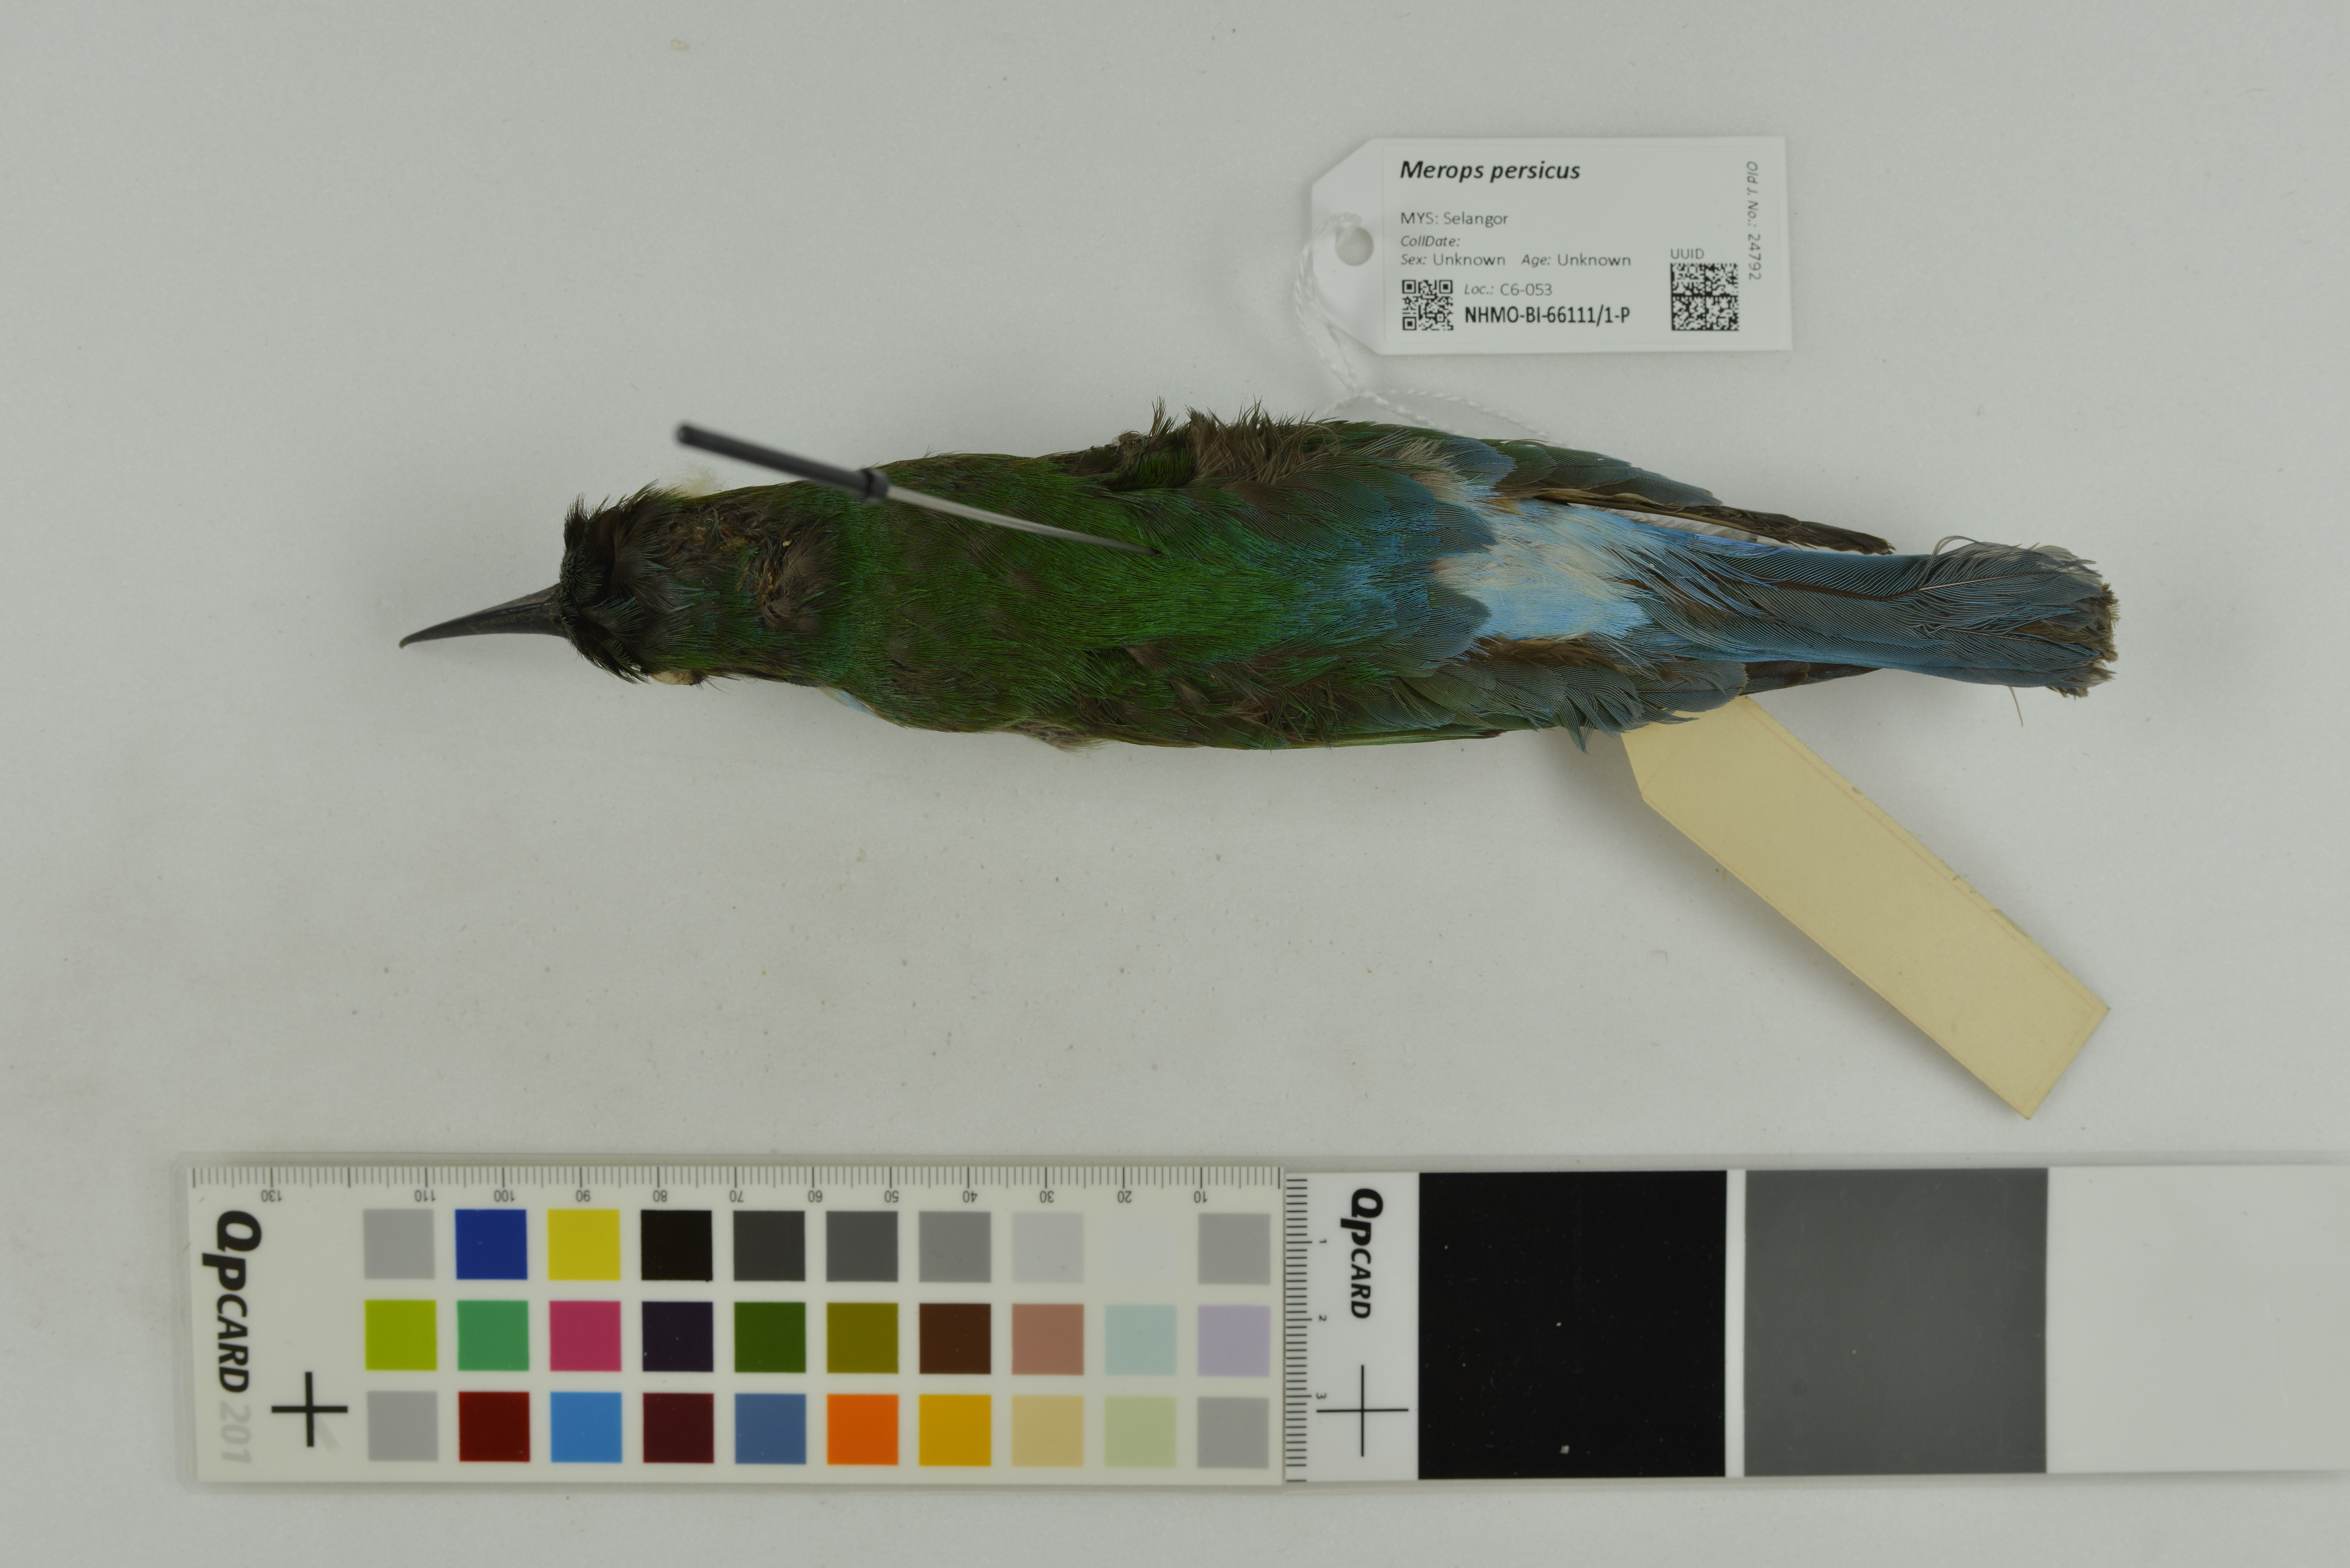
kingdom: Animalia
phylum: Chordata
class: Aves
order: Coraciiformes
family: Meropidae
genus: Merops
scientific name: Merops persicus
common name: Blue-cheeked bee-eater
